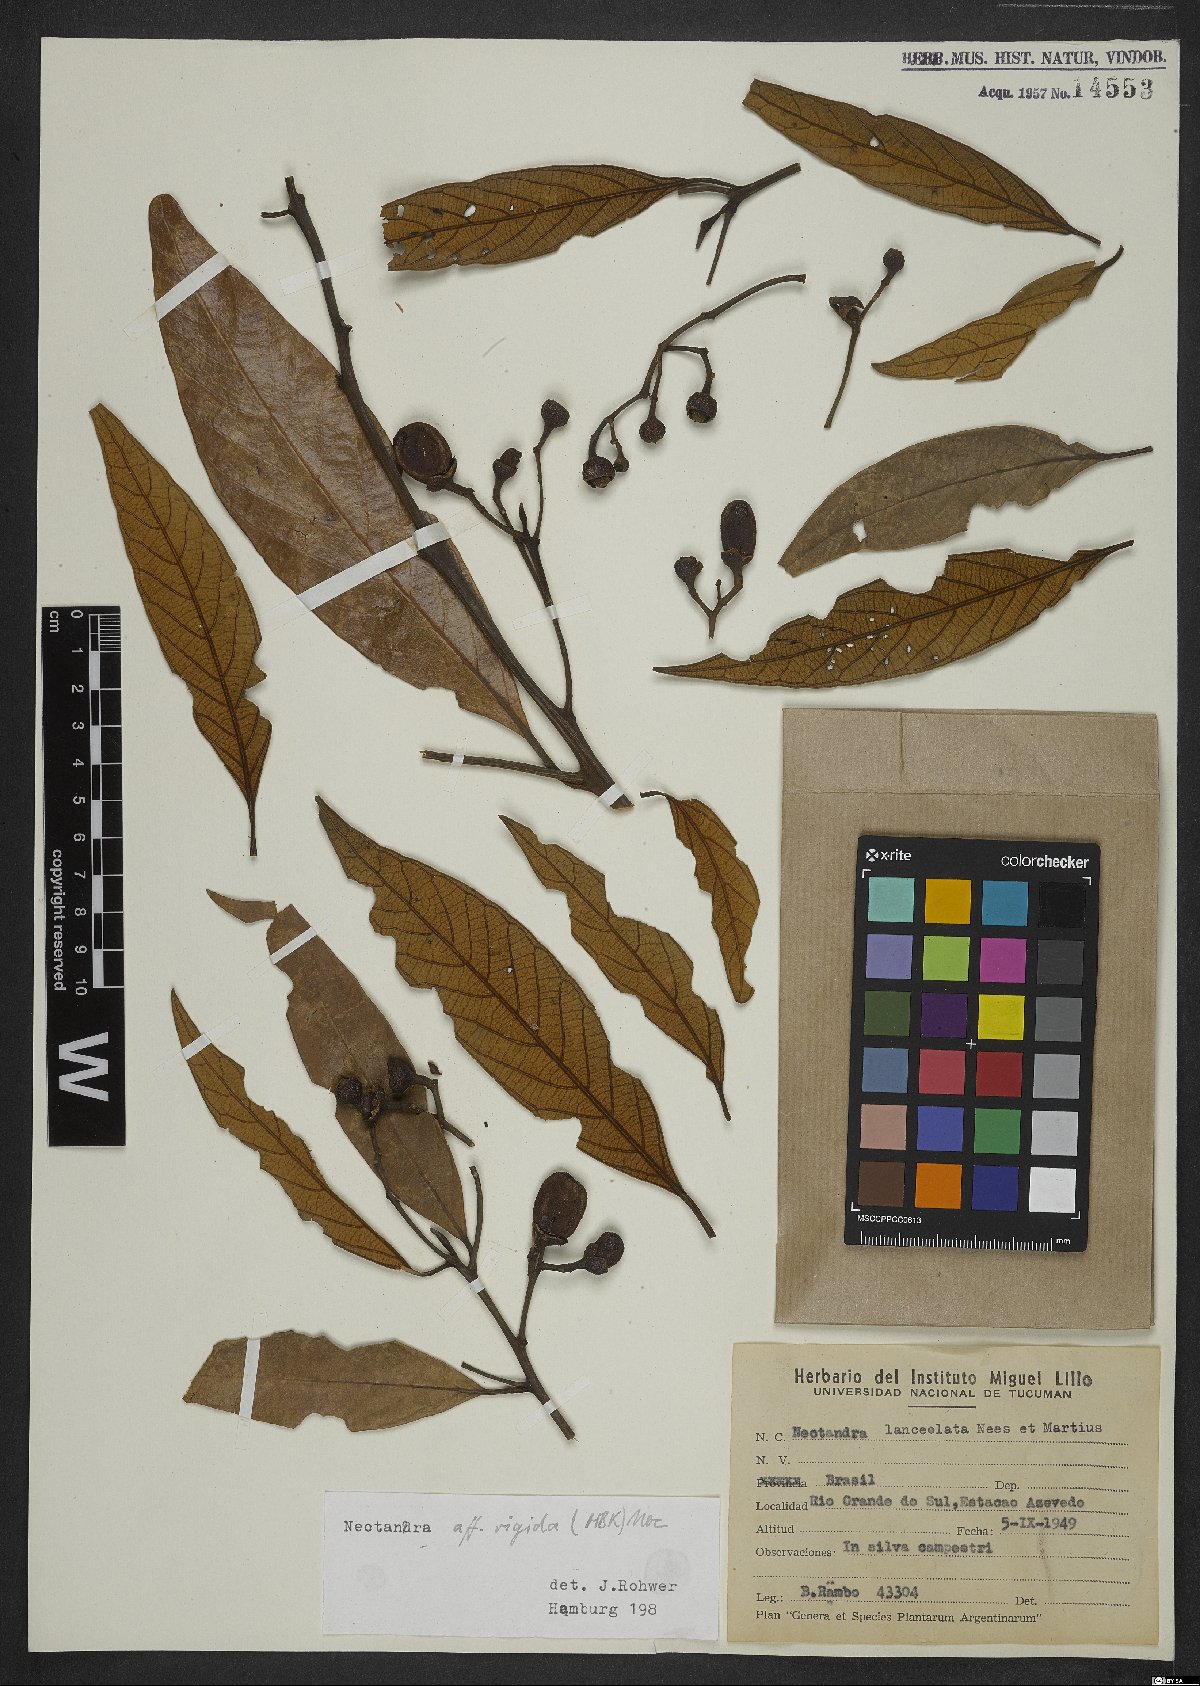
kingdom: Plantae
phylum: Tracheophyta
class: Magnoliopsida
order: Laurales
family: Lauraceae
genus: Nectandra
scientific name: Nectandra oppositifolia
